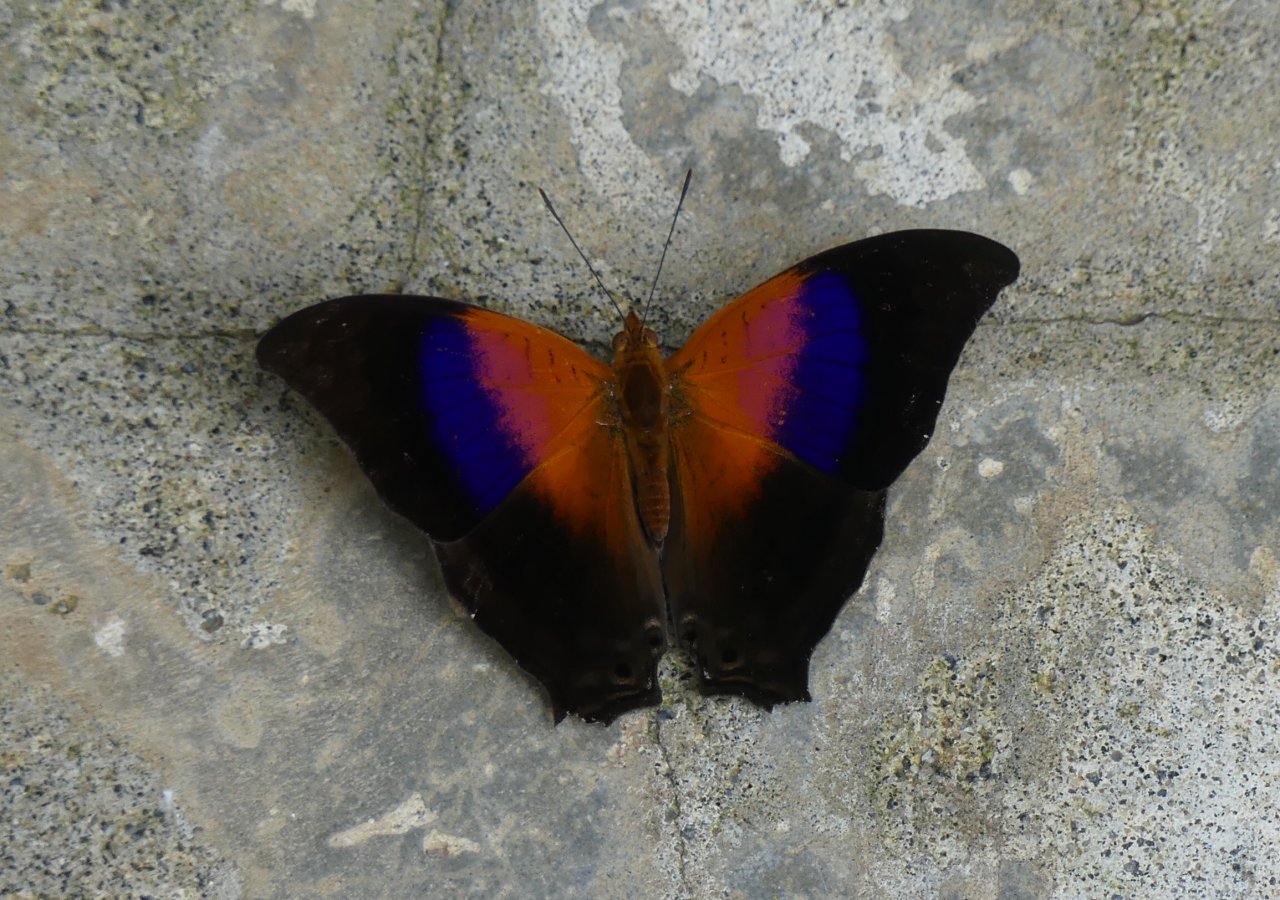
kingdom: Animalia
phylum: Arthropoda
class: Insecta
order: Lepidoptera
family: Nymphalidae
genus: Marpesia
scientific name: Marpesia furcula
